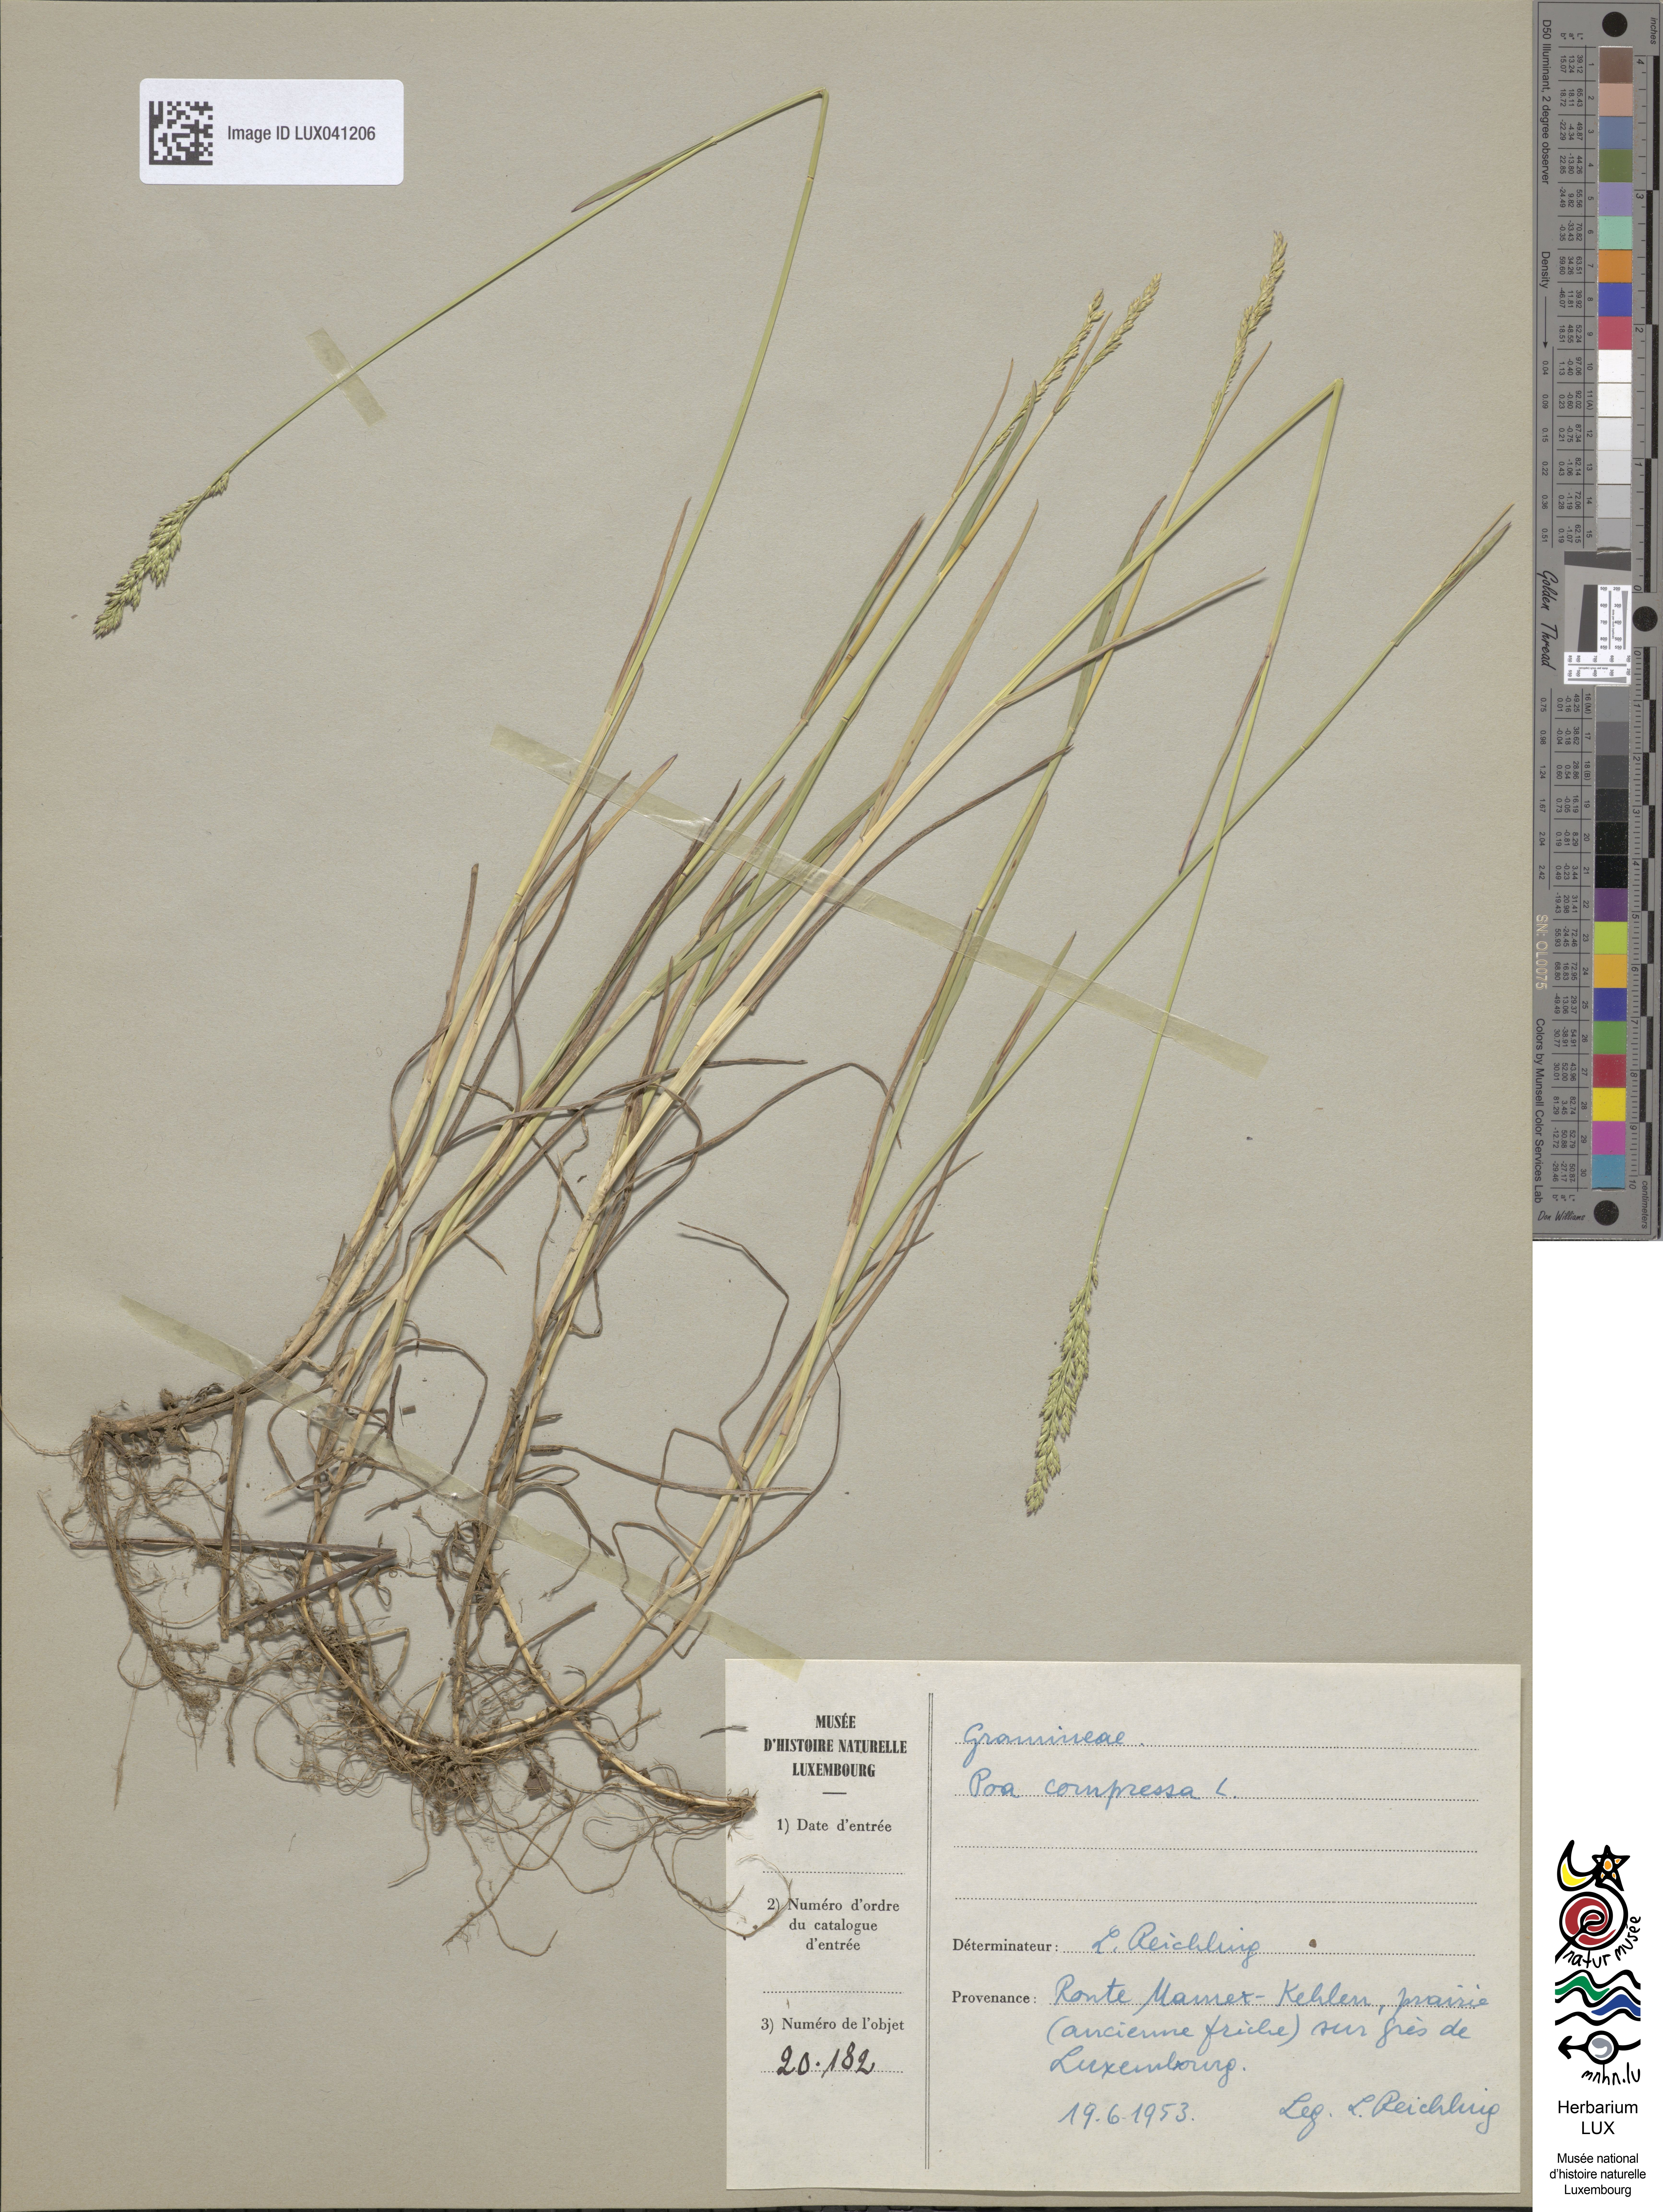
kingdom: Plantae
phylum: Tracheophyta
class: Liliopsida
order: Poales
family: Poaceae
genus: Poa
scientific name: Poa compressa
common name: Canada bluegrass
